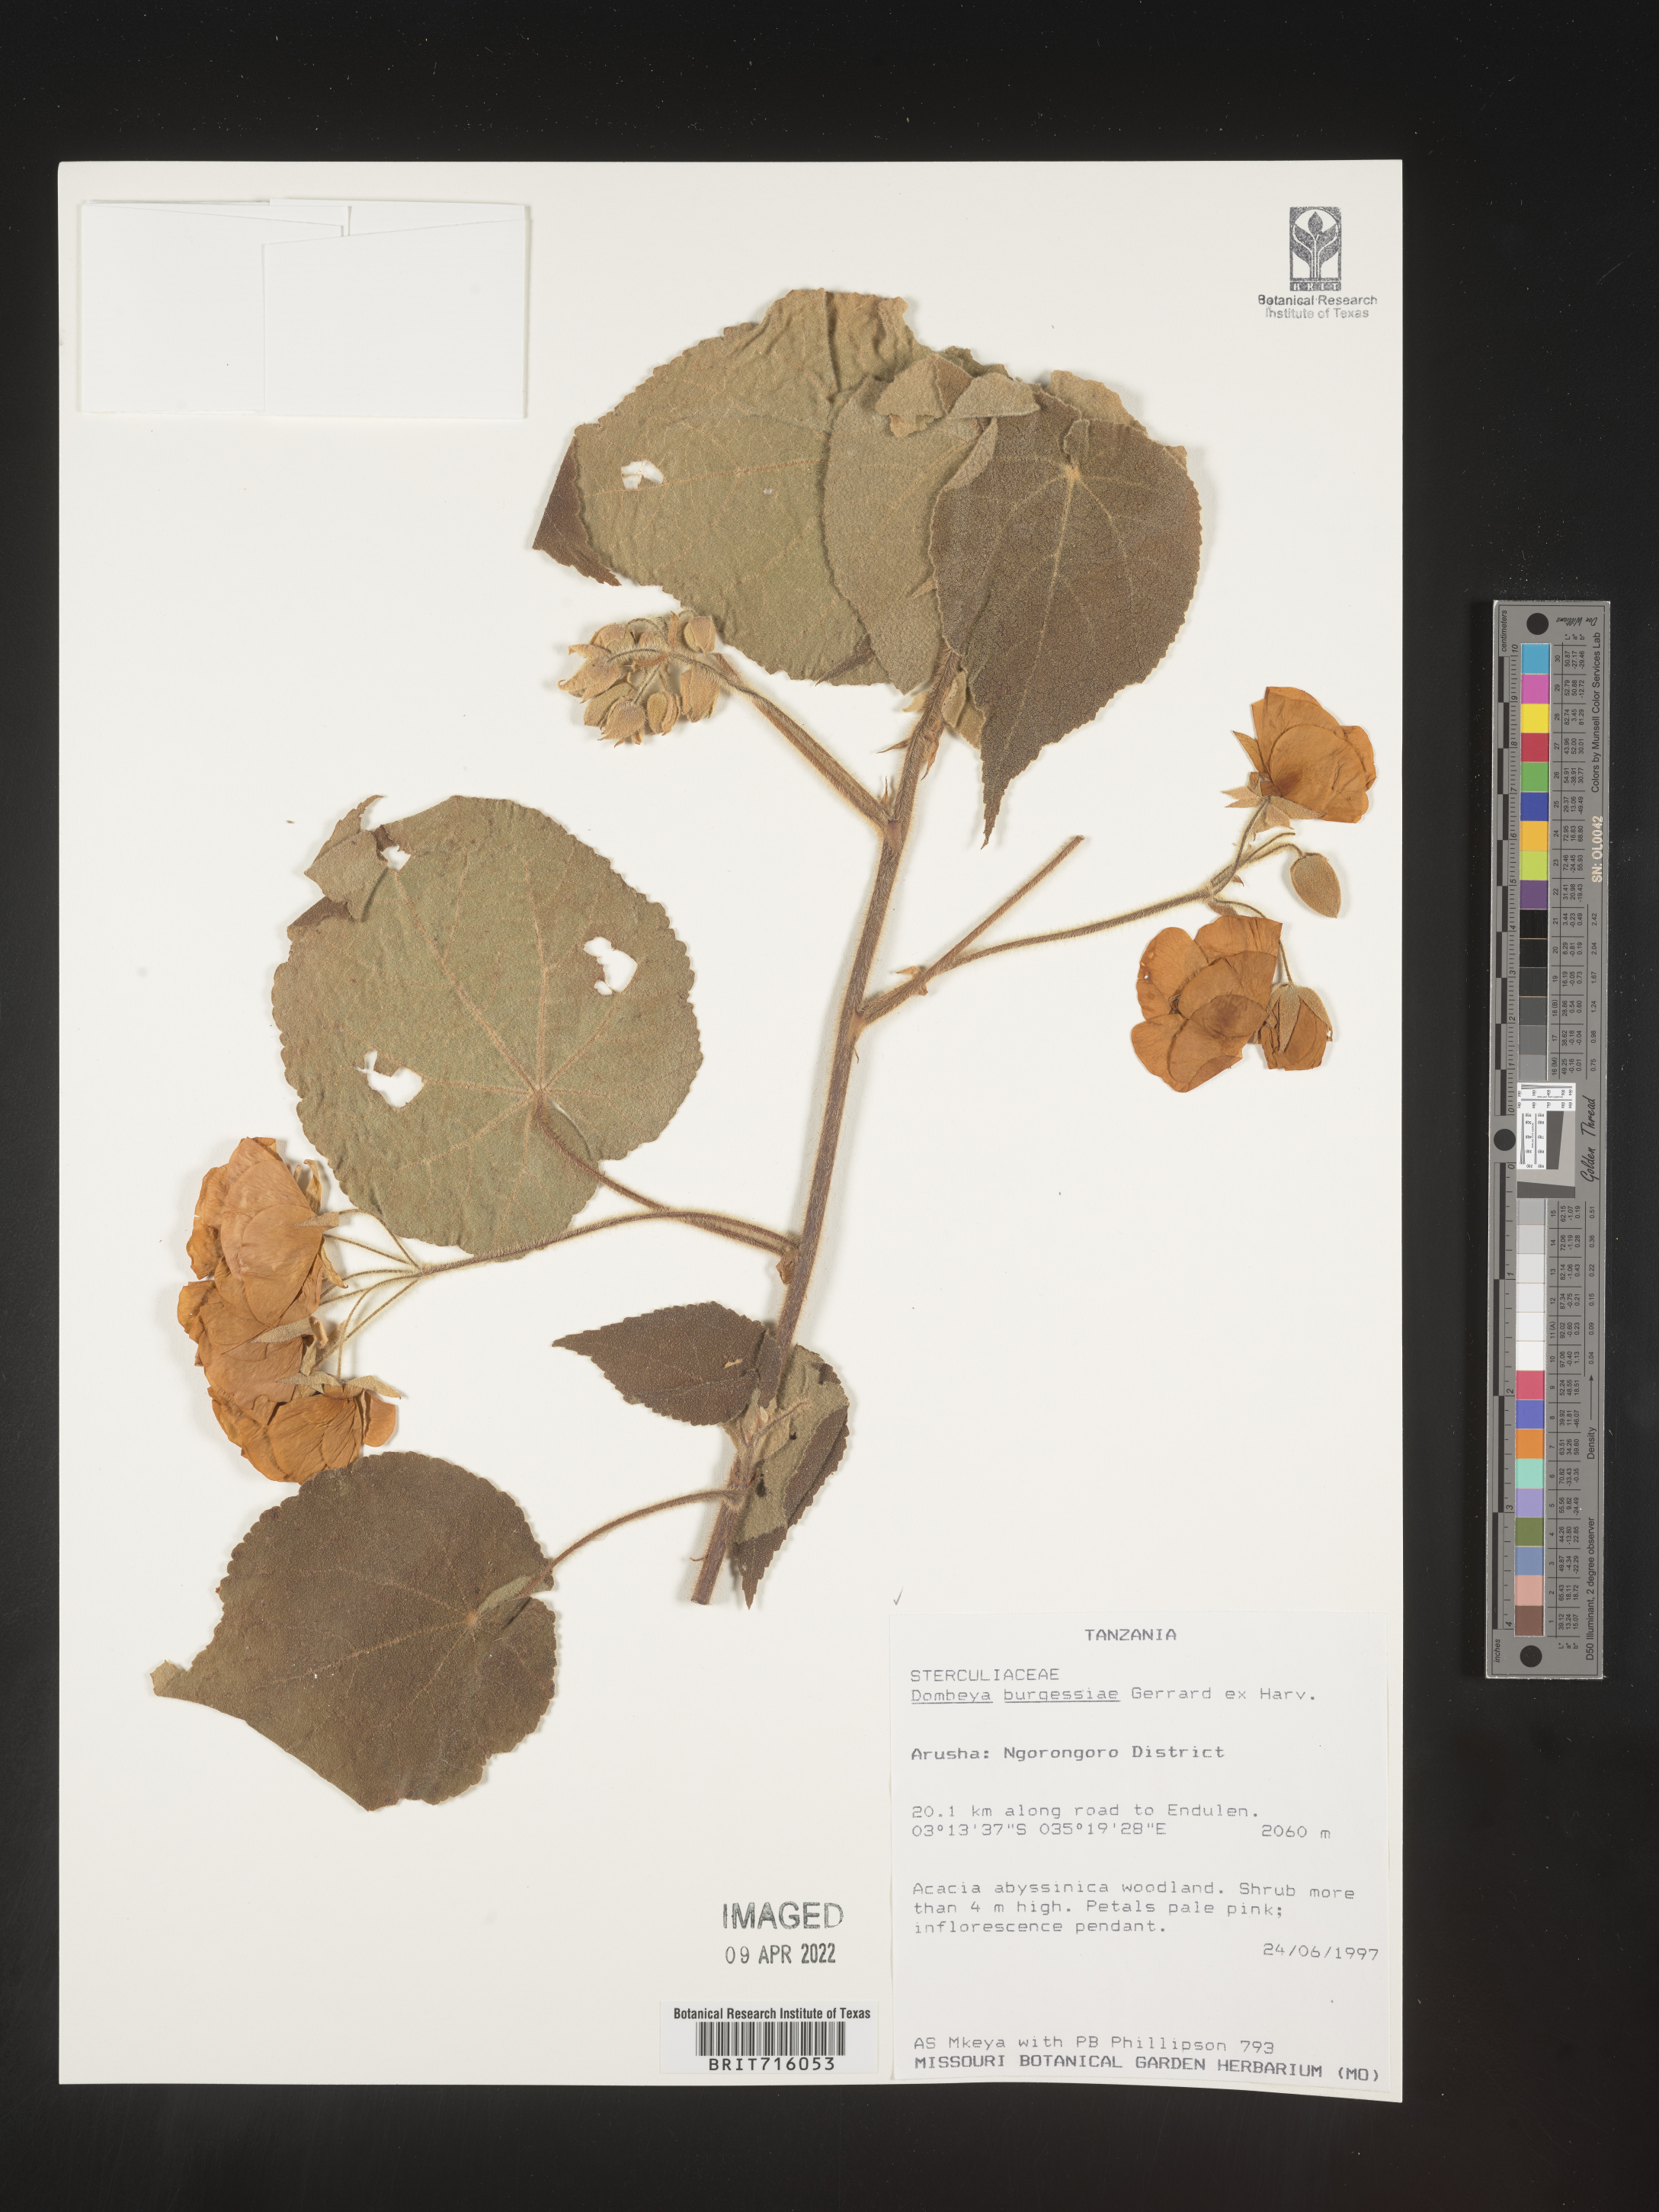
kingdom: Plantae
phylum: Tracheophyta
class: Magnoliopsida
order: Malvales
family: Malvaceae
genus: Dombeya
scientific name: Dombeya
